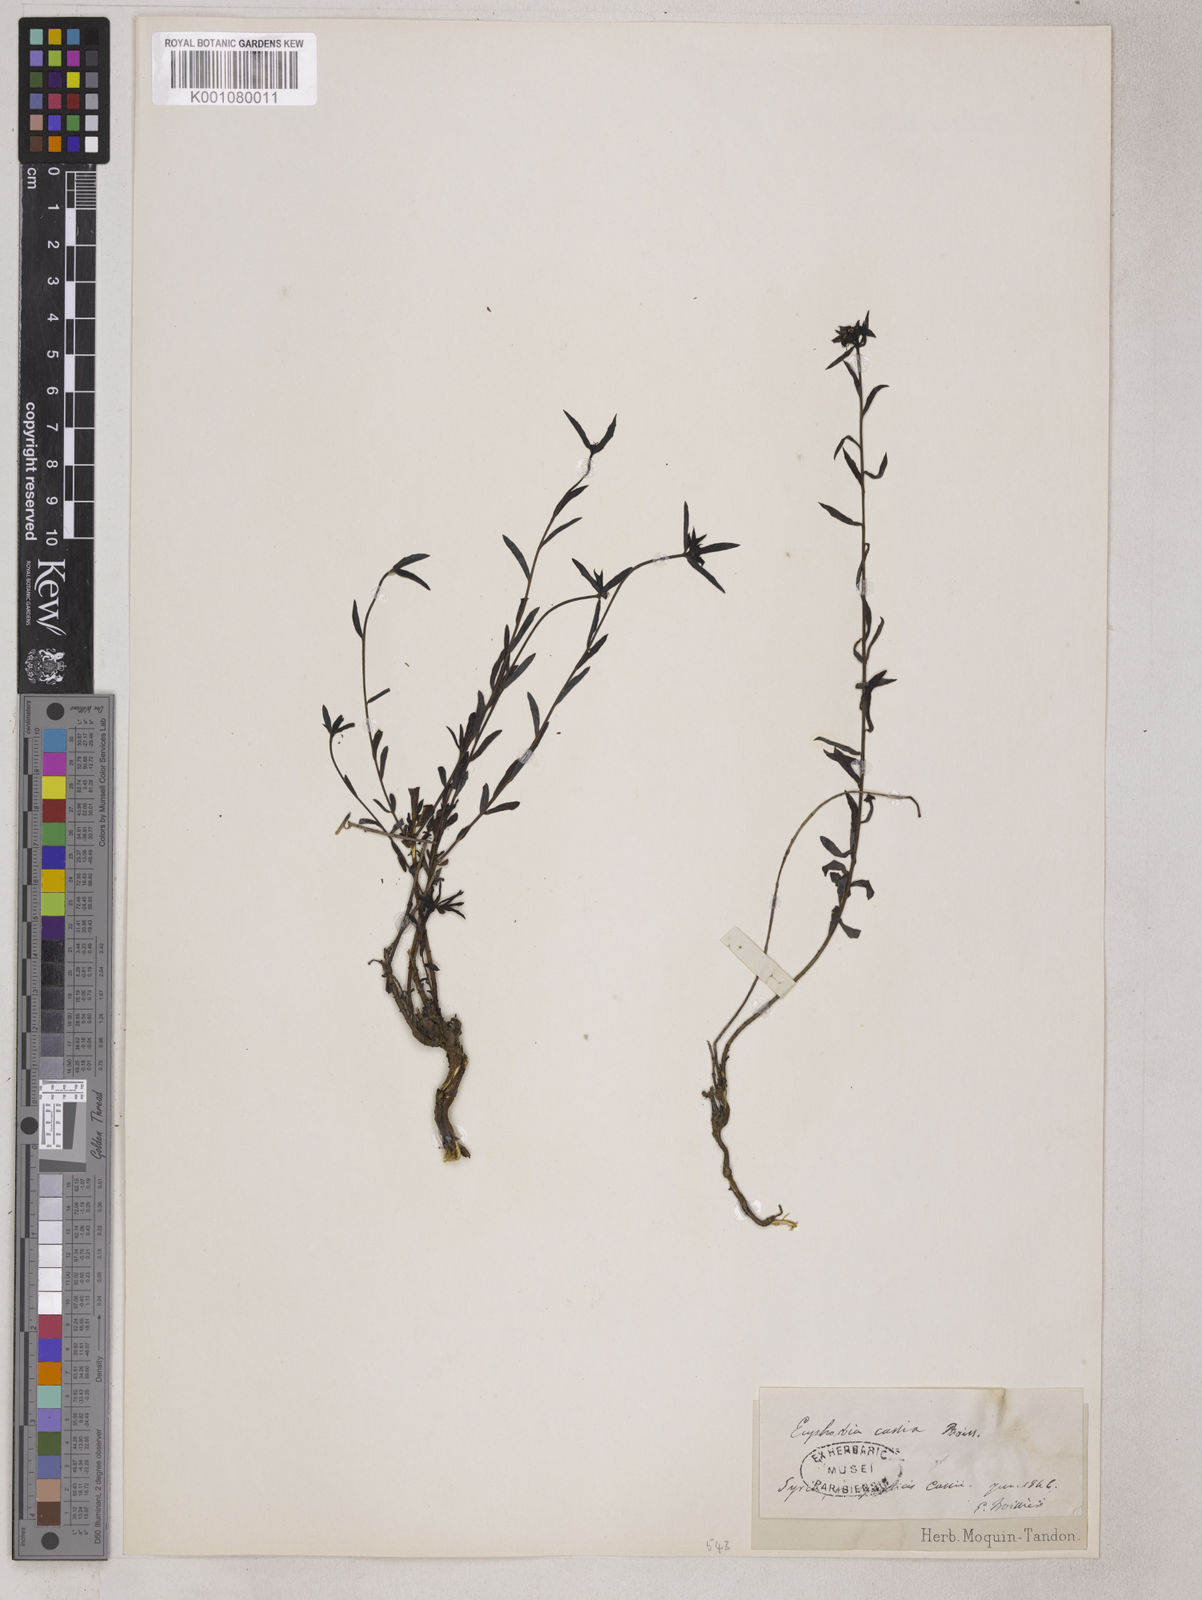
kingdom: Plantae
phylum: Tracheophyta
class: Magnoliopsida
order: Malpighiales
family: Euphorbiaceae
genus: Euphorbia
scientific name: Euphorbia cassia
